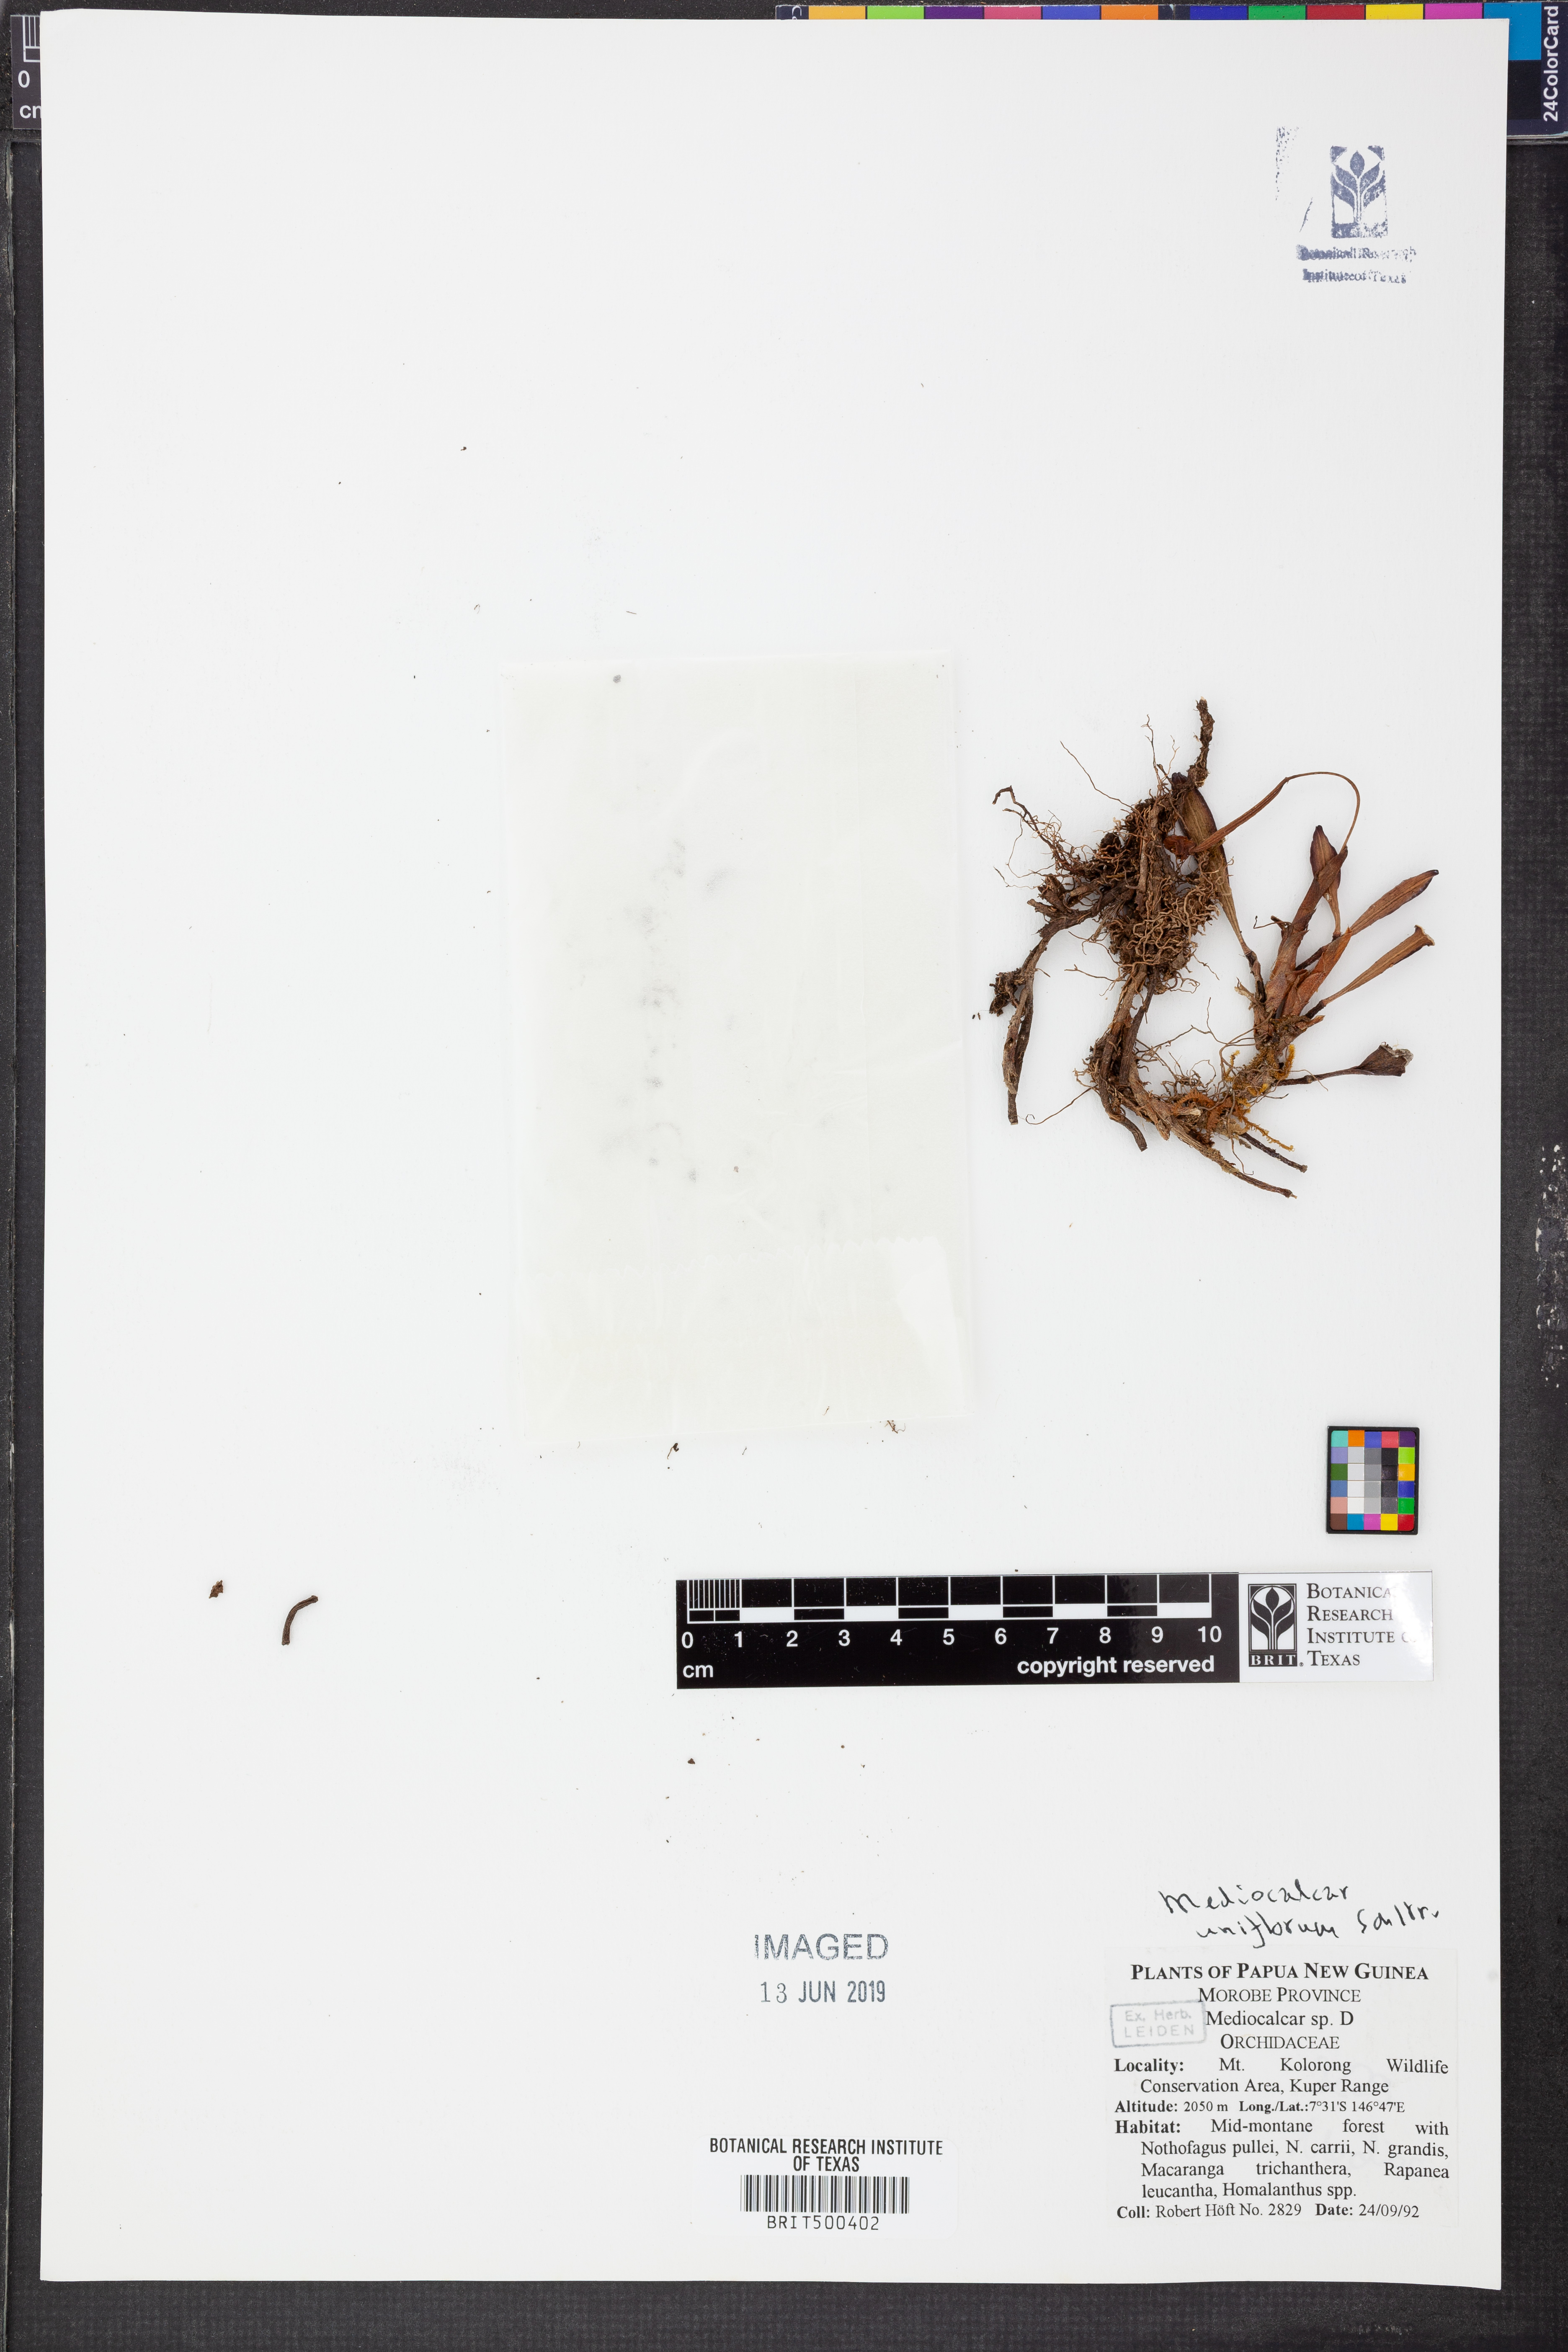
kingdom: Plantae
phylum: Tracheophyta
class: Liliopsida
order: Asparagales
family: Orchidaceae
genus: Mediocalcar
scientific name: Mediocalcar uniflorum
